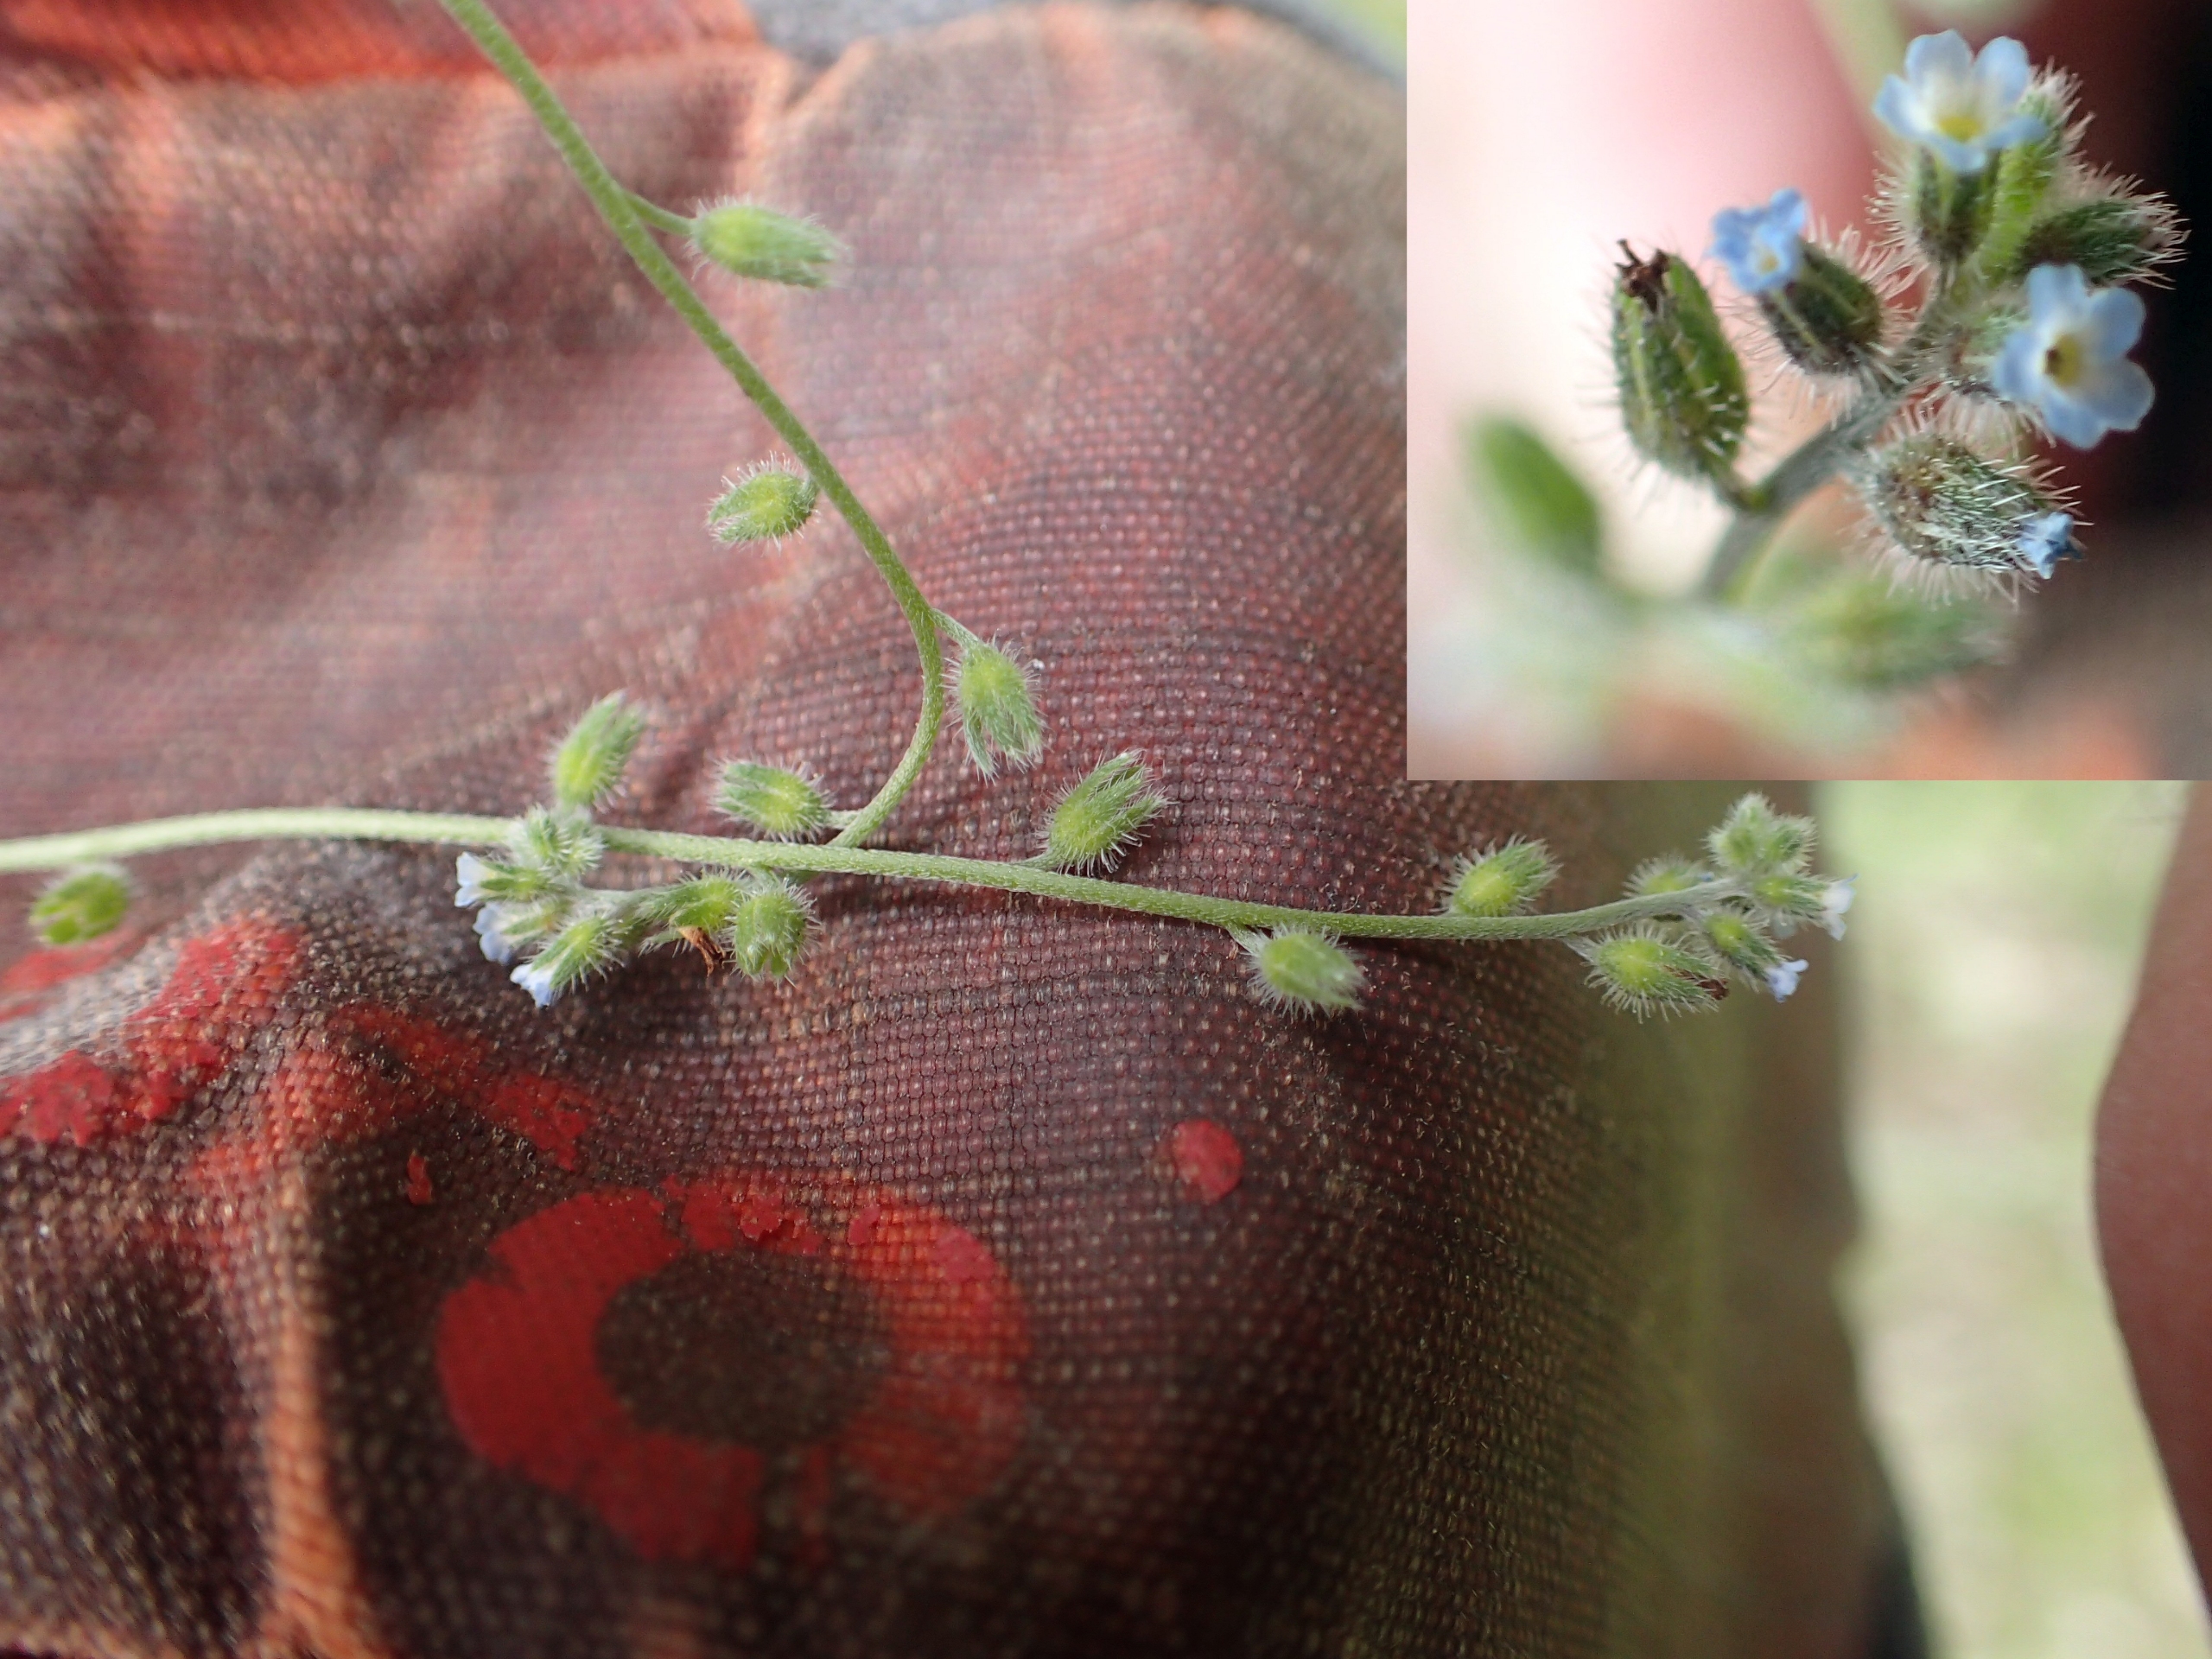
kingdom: Plantae
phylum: Tracheophyta
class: Magnoliopsida
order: Boraginales
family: Boraginaceae
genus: Myosotis
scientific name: Myosotis ramosissima
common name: Bakke-forglemmigej
